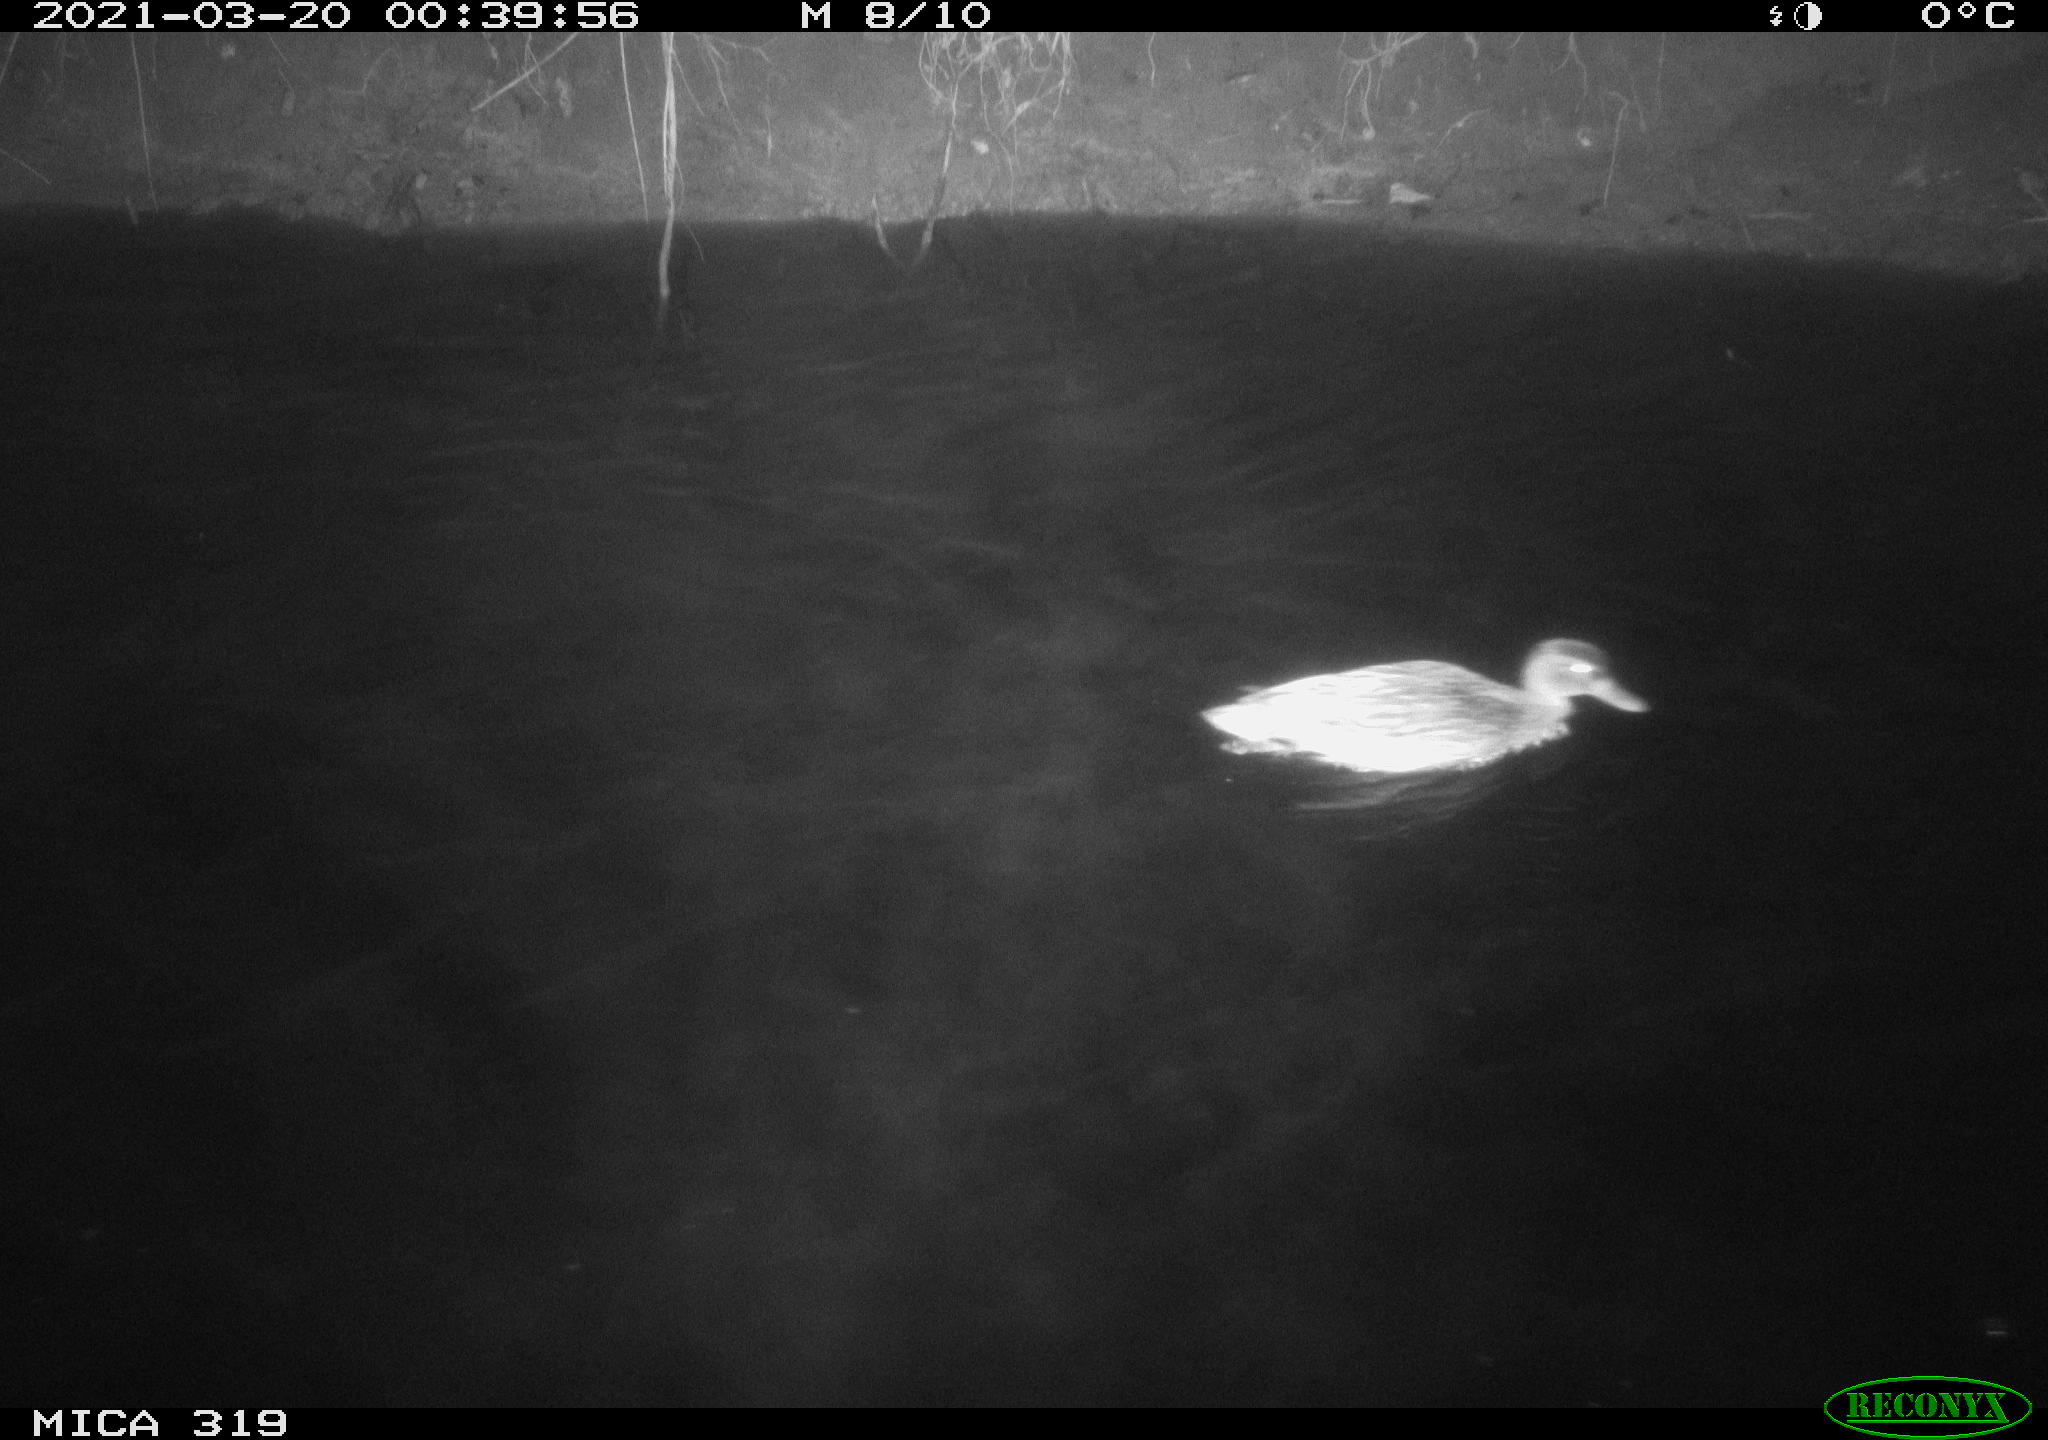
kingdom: Animalia
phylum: Chordata
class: Aves
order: Anseriformes
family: Anatidae
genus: Anas
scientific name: Anas platyrhynchos
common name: Mallard
